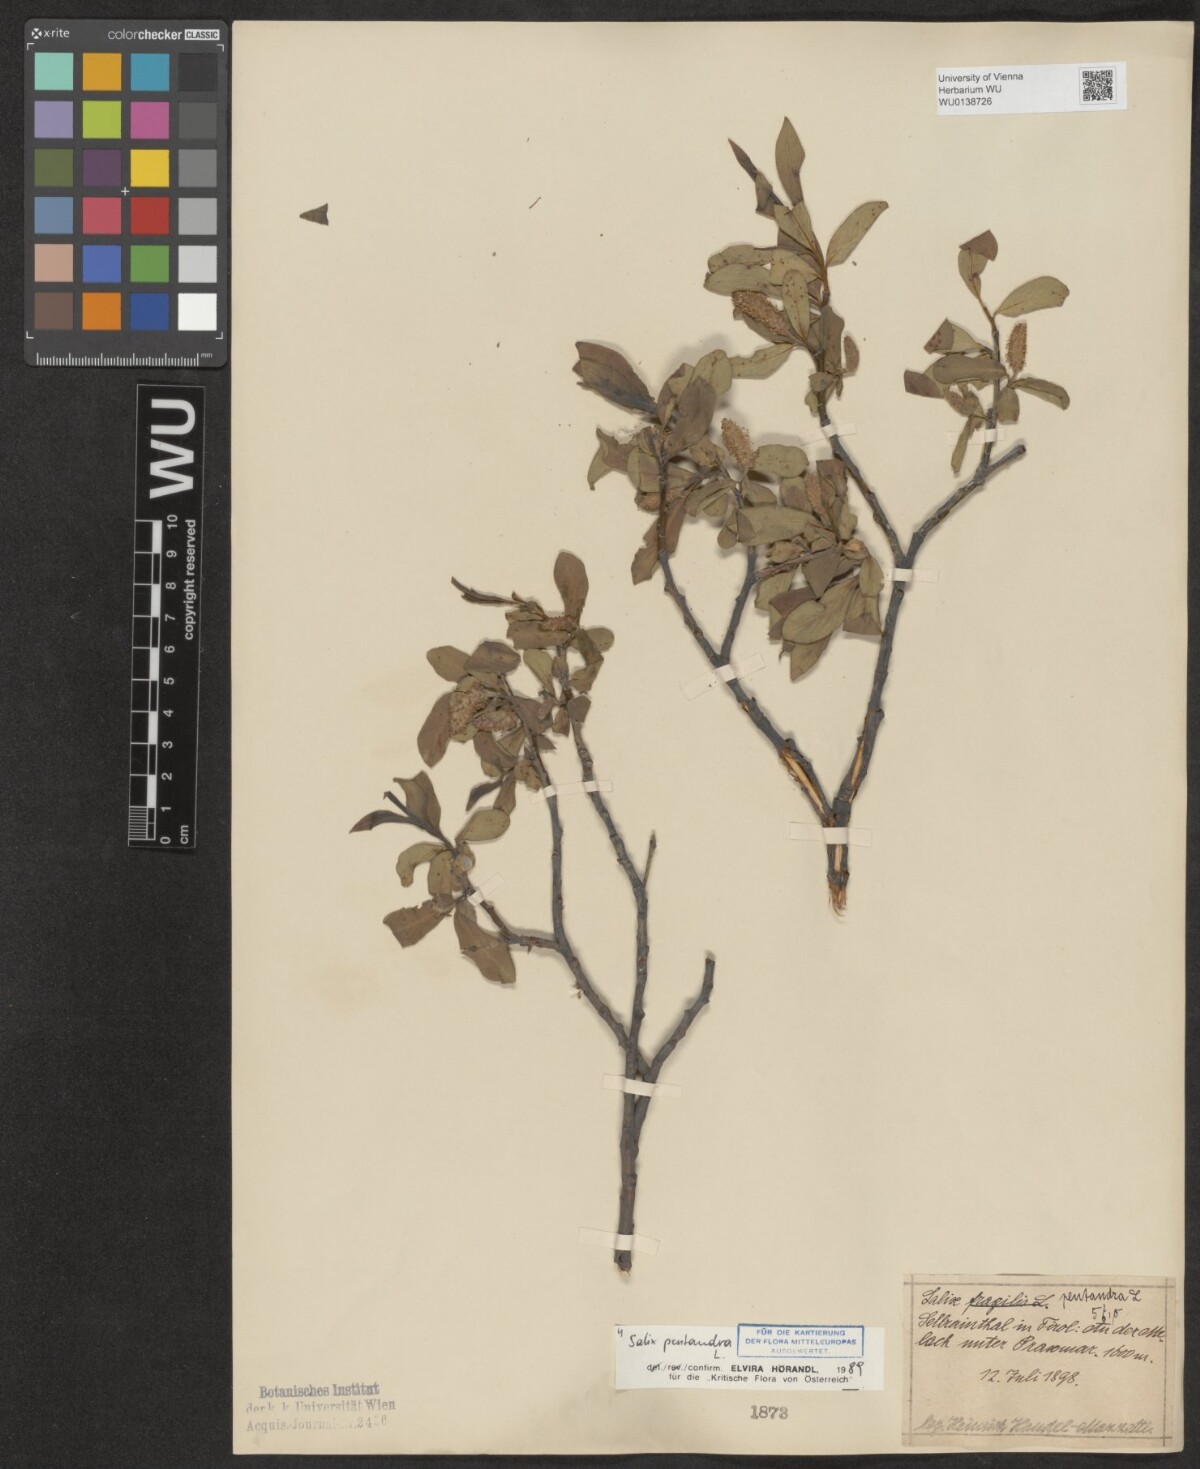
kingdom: Plantae
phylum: Tracheophyta
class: Magnoliopsida
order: Malpighiales
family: Salicaceae
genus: Salix
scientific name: Salix pentandra
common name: Bay willow
